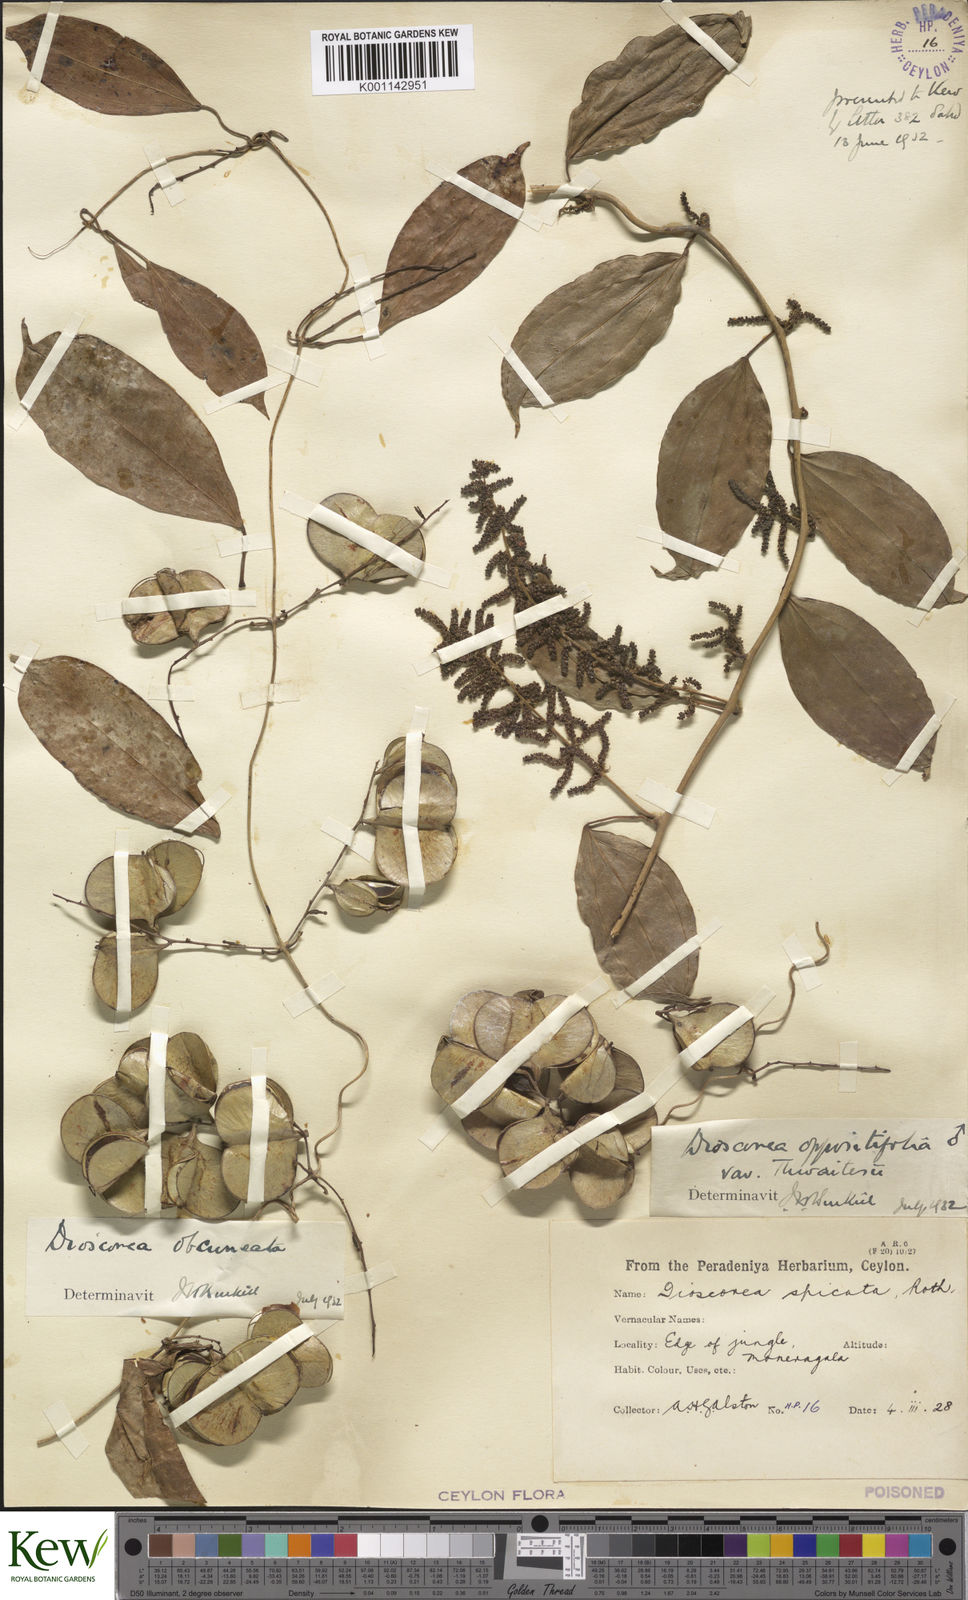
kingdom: Plantae
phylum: Tracheophyta
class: Liliopsida
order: Dioscoreales
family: Dioscoreaceae
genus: Dioscorea
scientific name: Dioscorea oppositifolia
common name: Chinese yam
